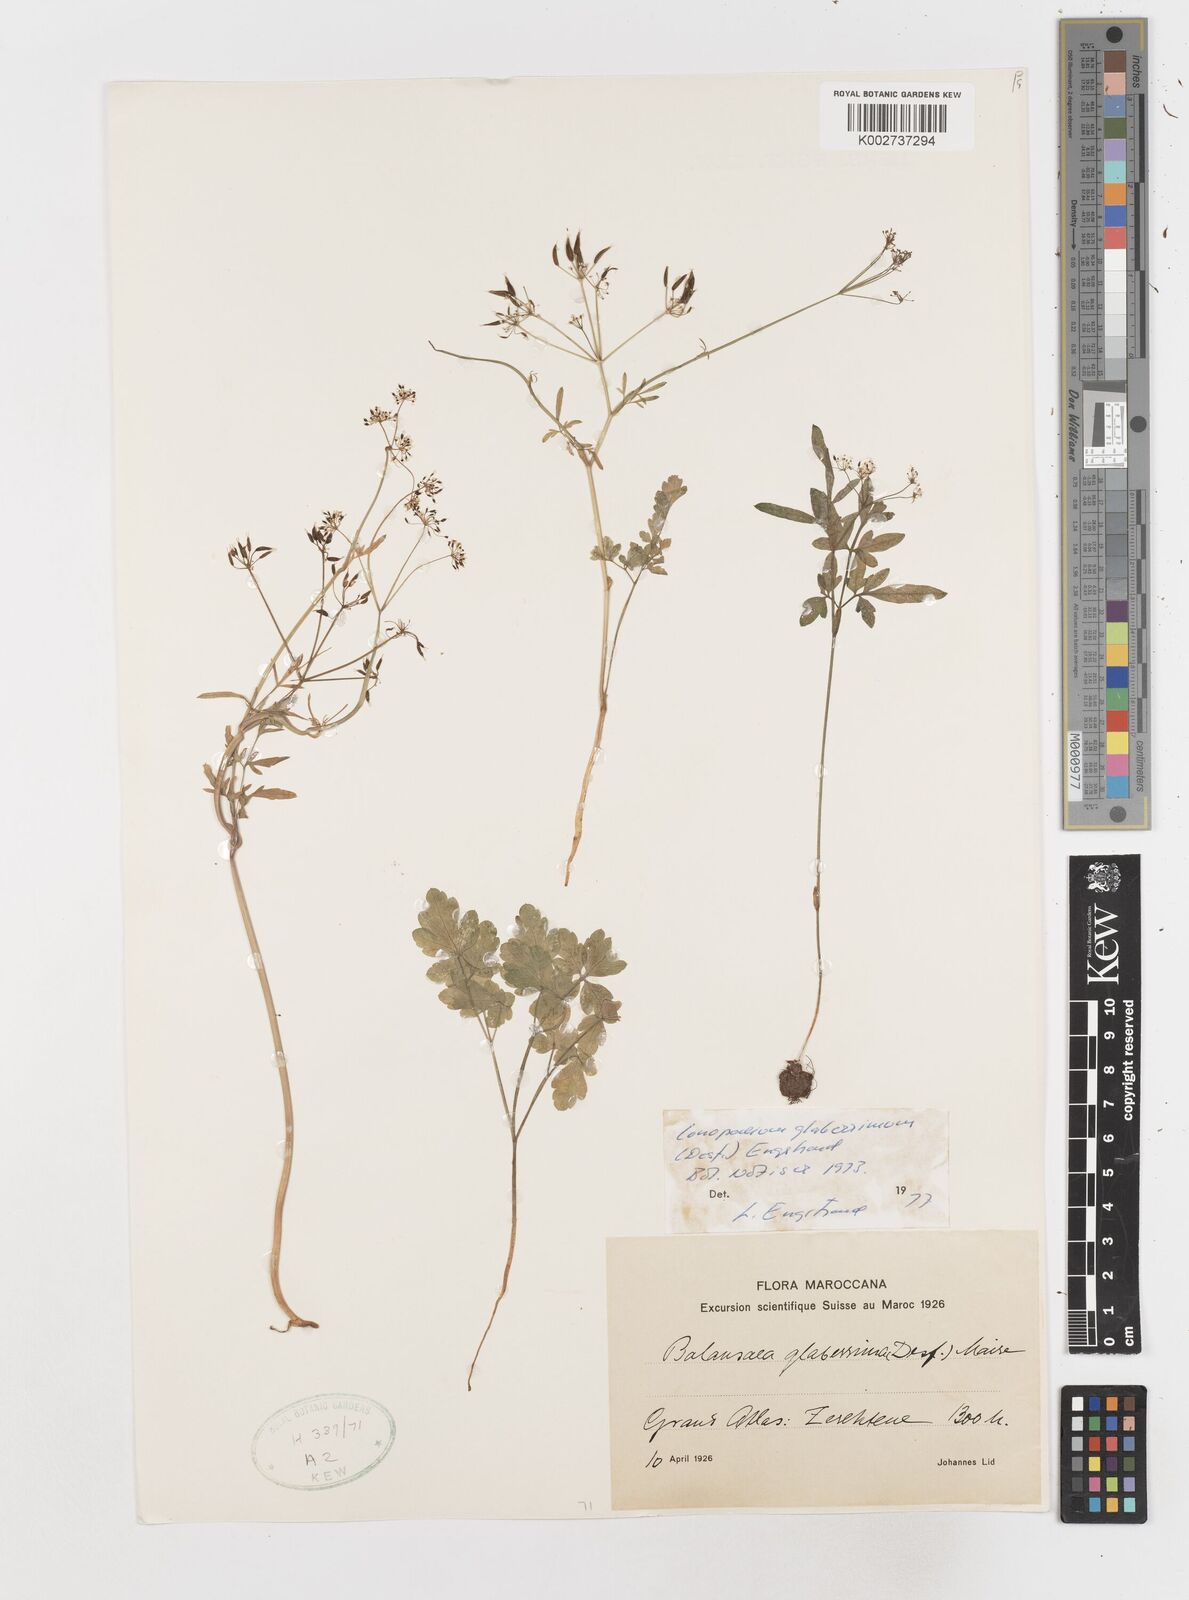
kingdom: Plantae
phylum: Tracheophyta
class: Magnoliopsida
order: Apiales
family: Apiaceae
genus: Conopodium
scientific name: Conopodium glaberrimum
